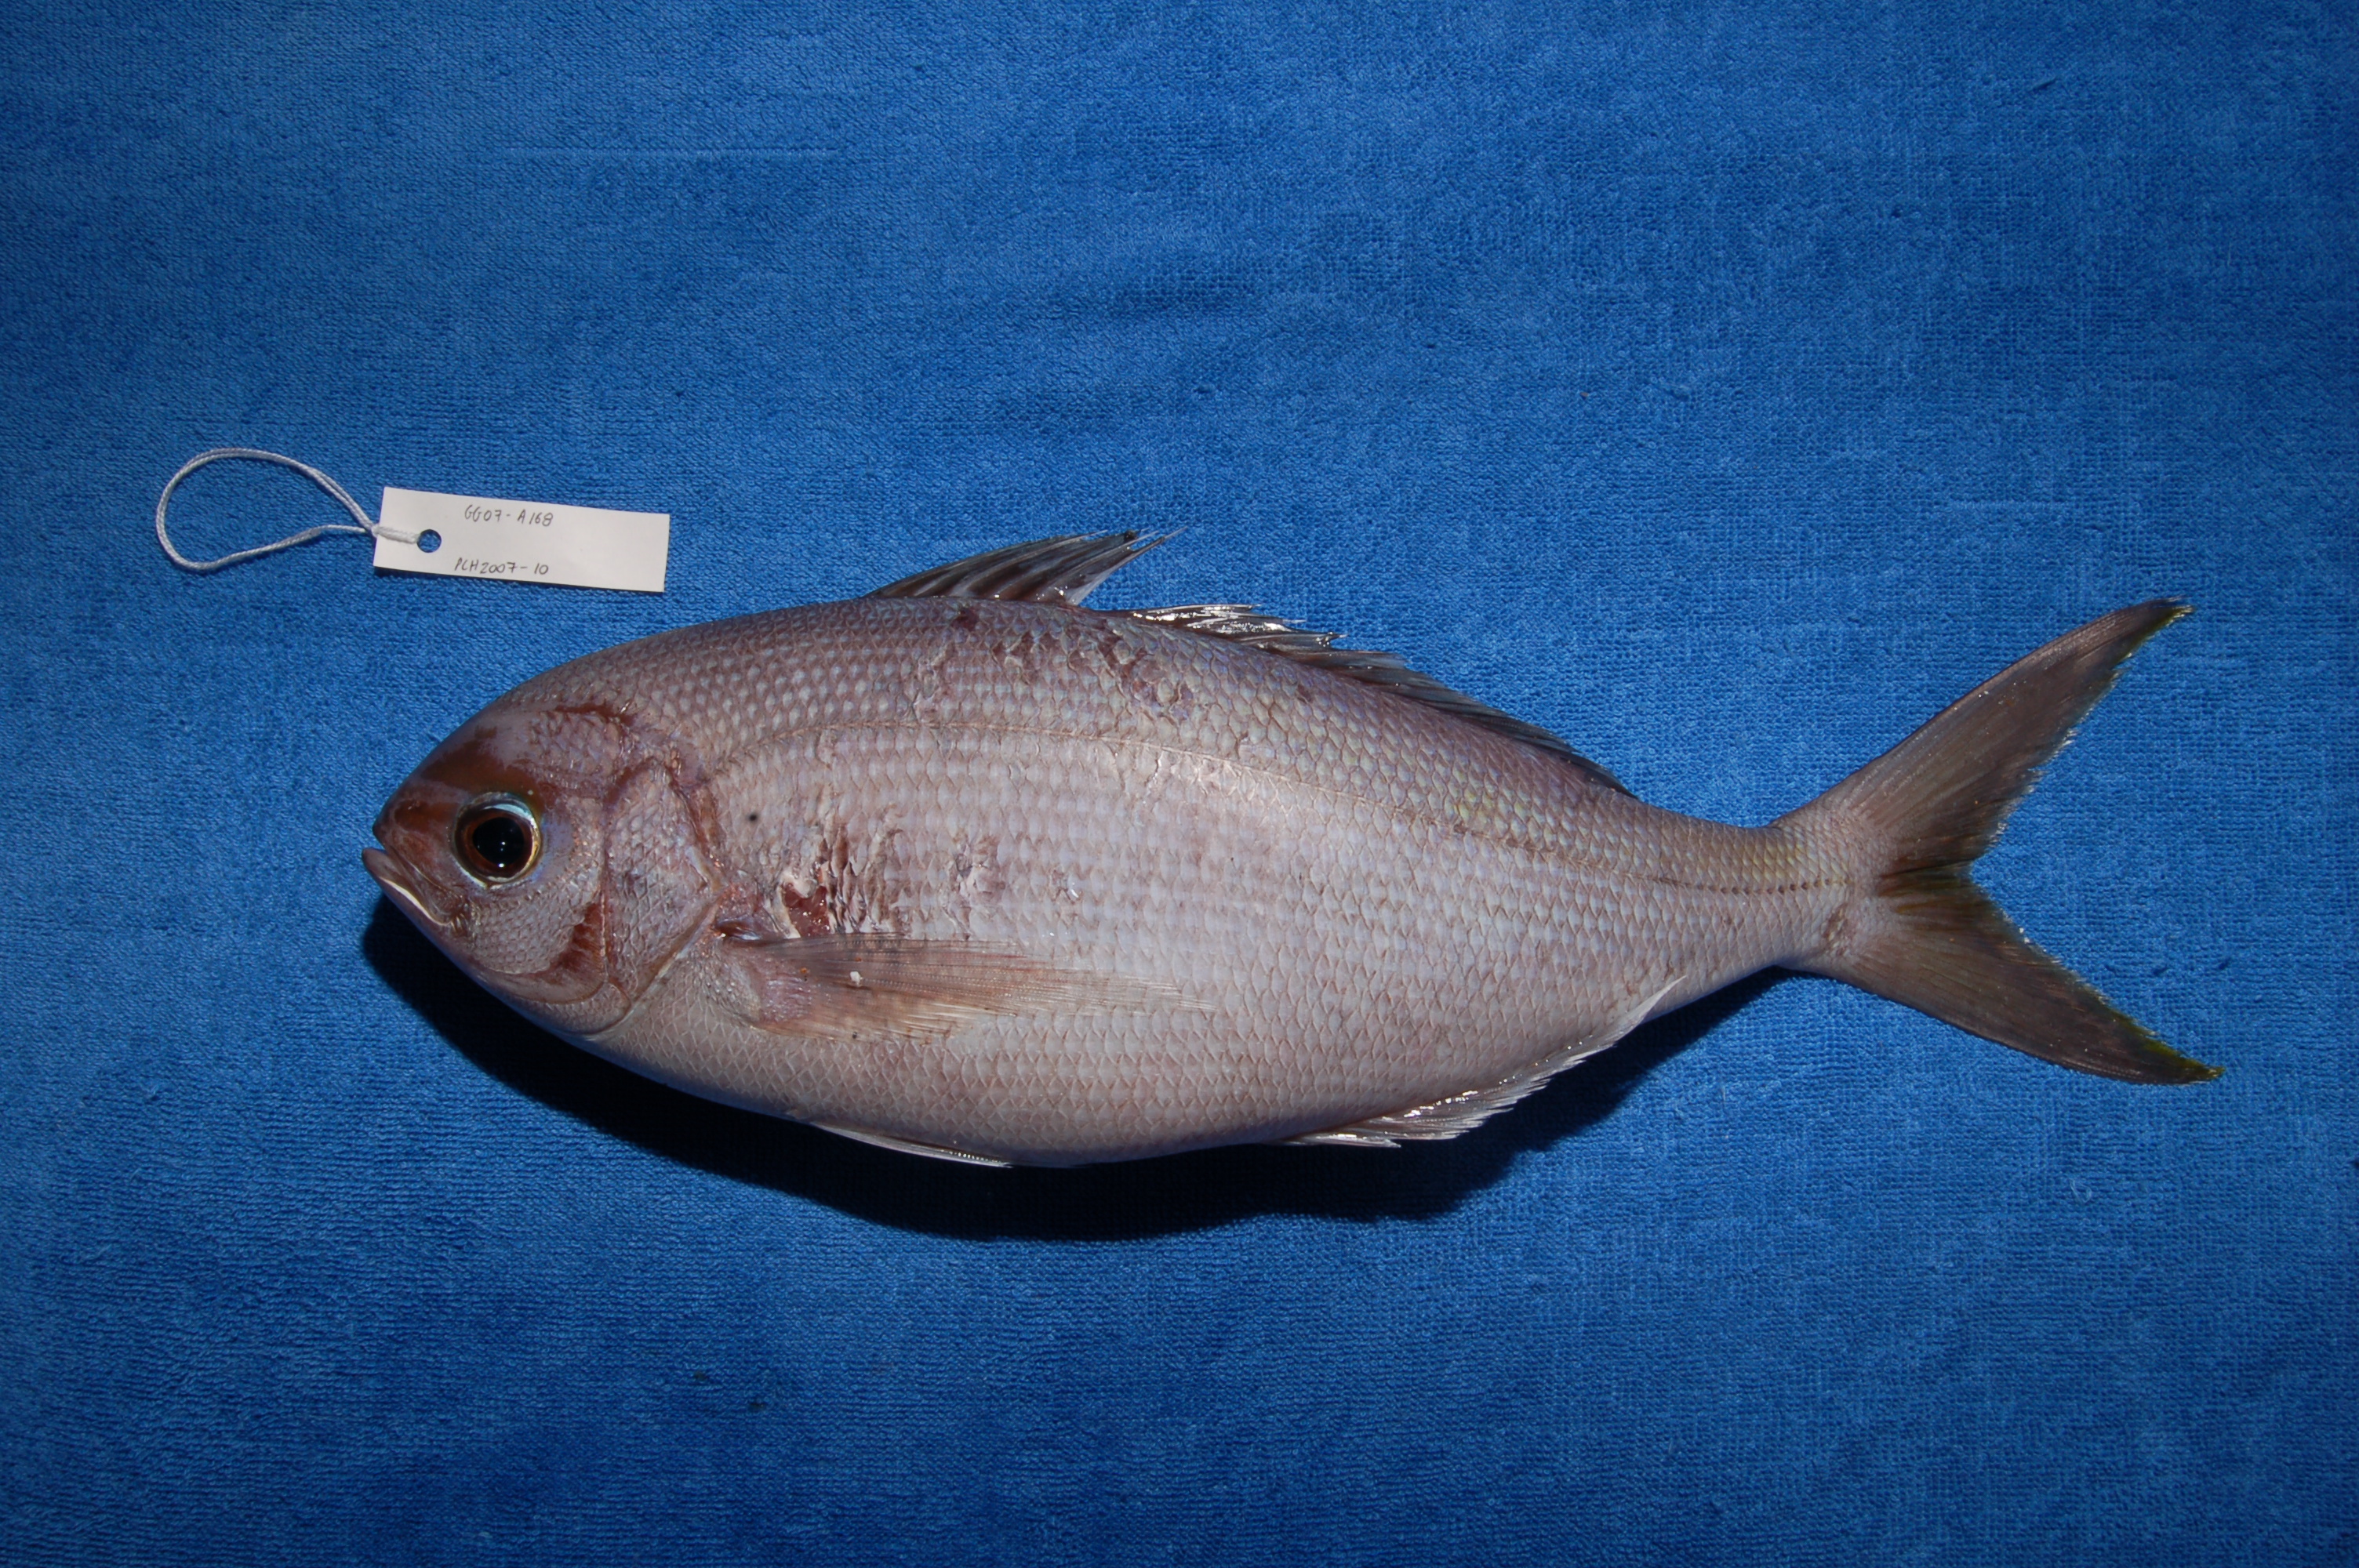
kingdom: Animalia
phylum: Chordata
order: Perciformes
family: Lutjanidae
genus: Paracaesio
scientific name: Paracaesio xanthura
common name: Yellowtail blue snapper
